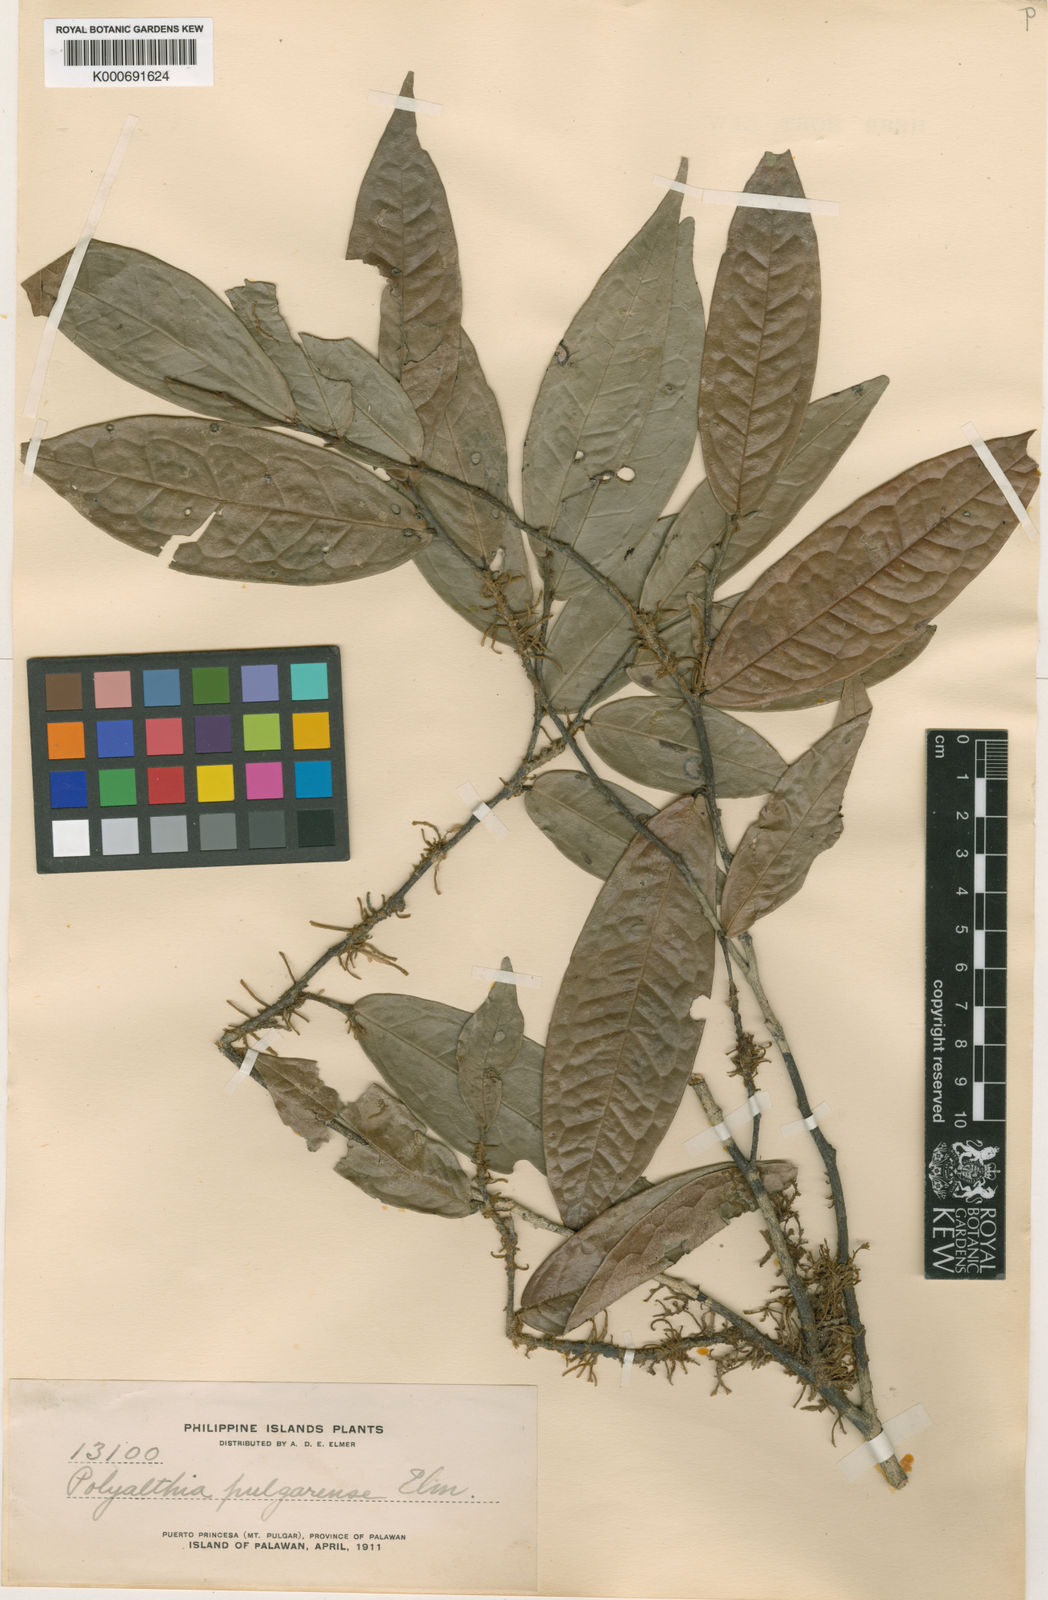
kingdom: Plantae
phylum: Tracheophyta
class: Magnoliopsida
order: Magnoliales
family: Annonaceae
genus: Polyalthia
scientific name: Polyalthia obliqua
